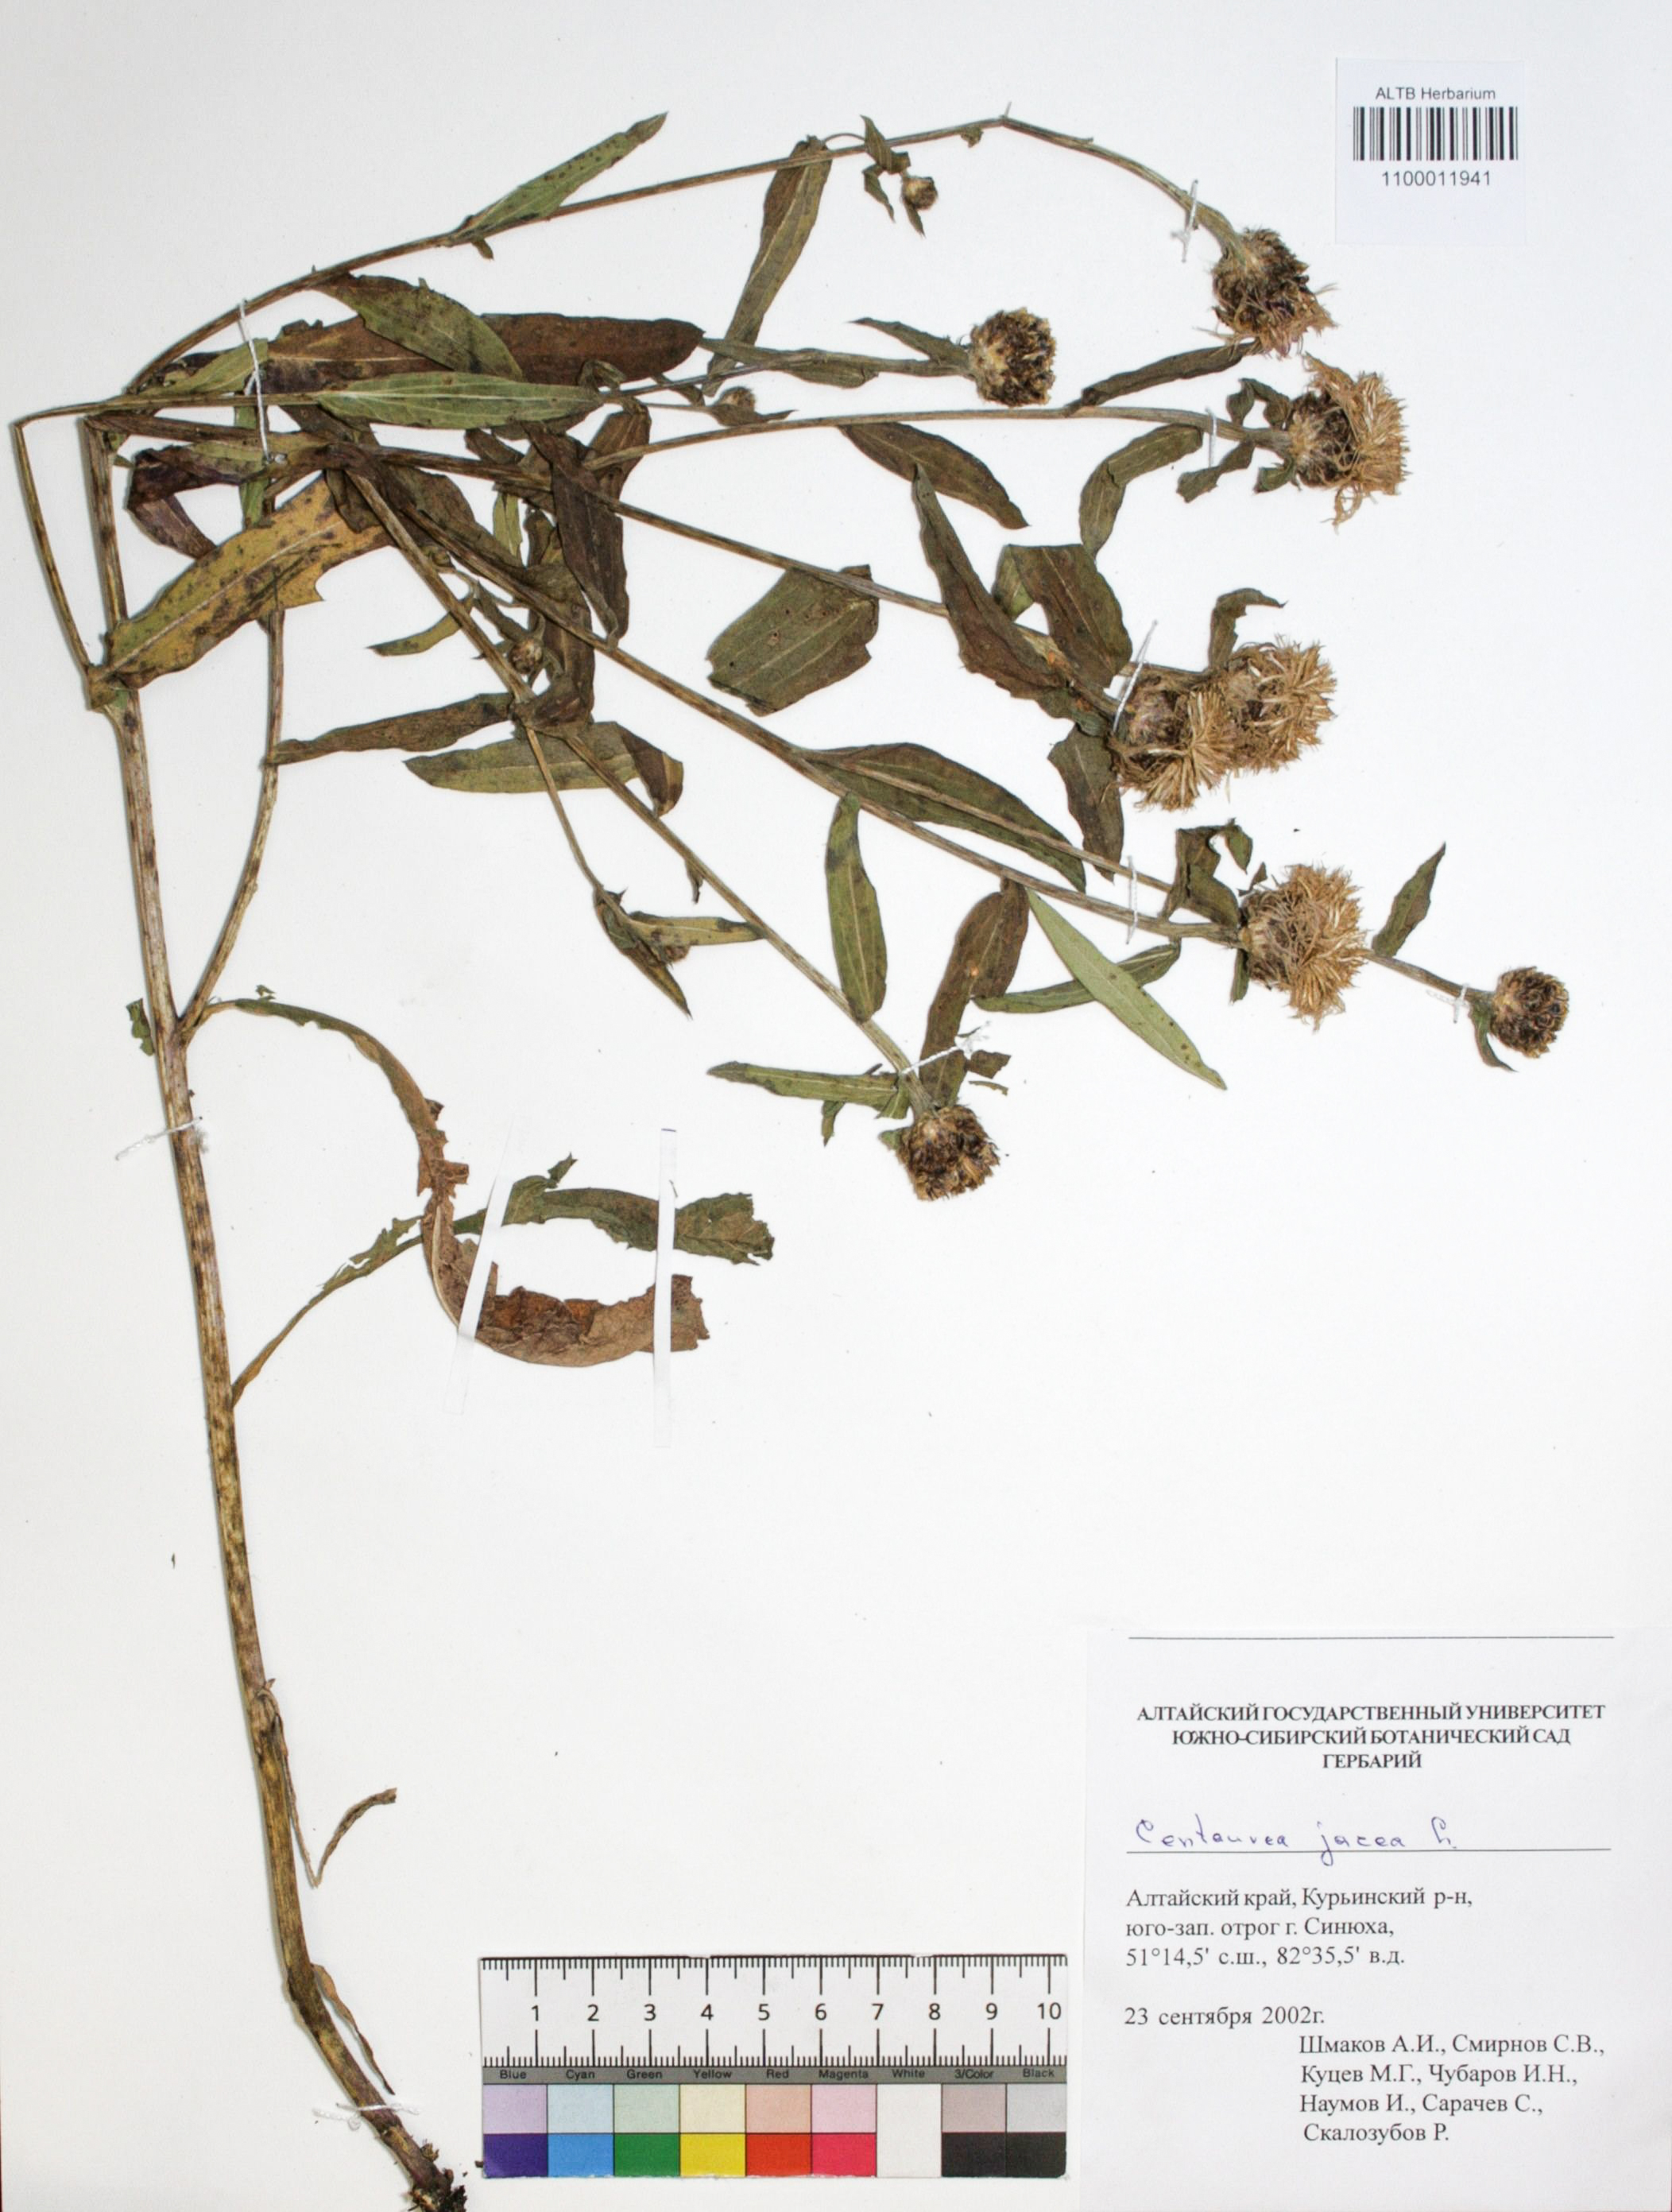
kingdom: Plantae
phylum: Tracheophyta
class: Magnoliopsida
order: Asterales
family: Asteraceae
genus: Centaurea
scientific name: Centaurea jacea
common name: Brown knapweed
